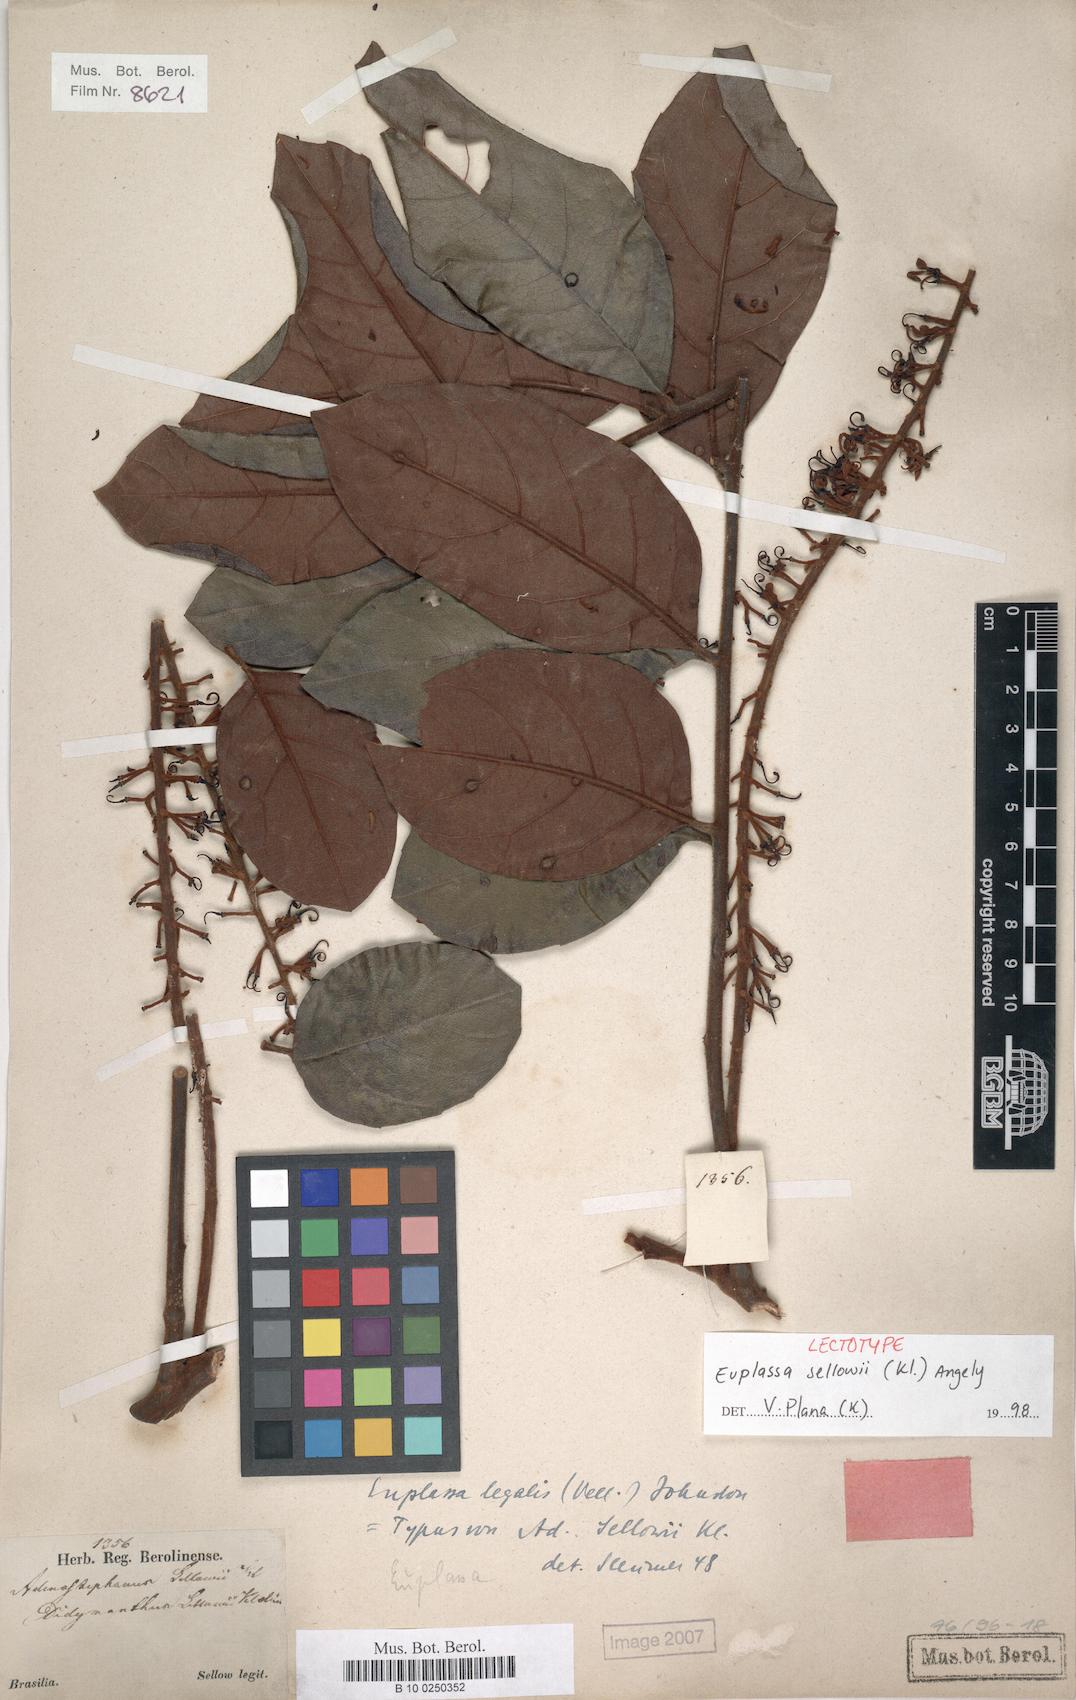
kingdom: Plantae
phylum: Tracheophyta
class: Magnoliopsida
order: Proteales
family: Proteaceae
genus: Euplassa
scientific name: Euplassa legalis
